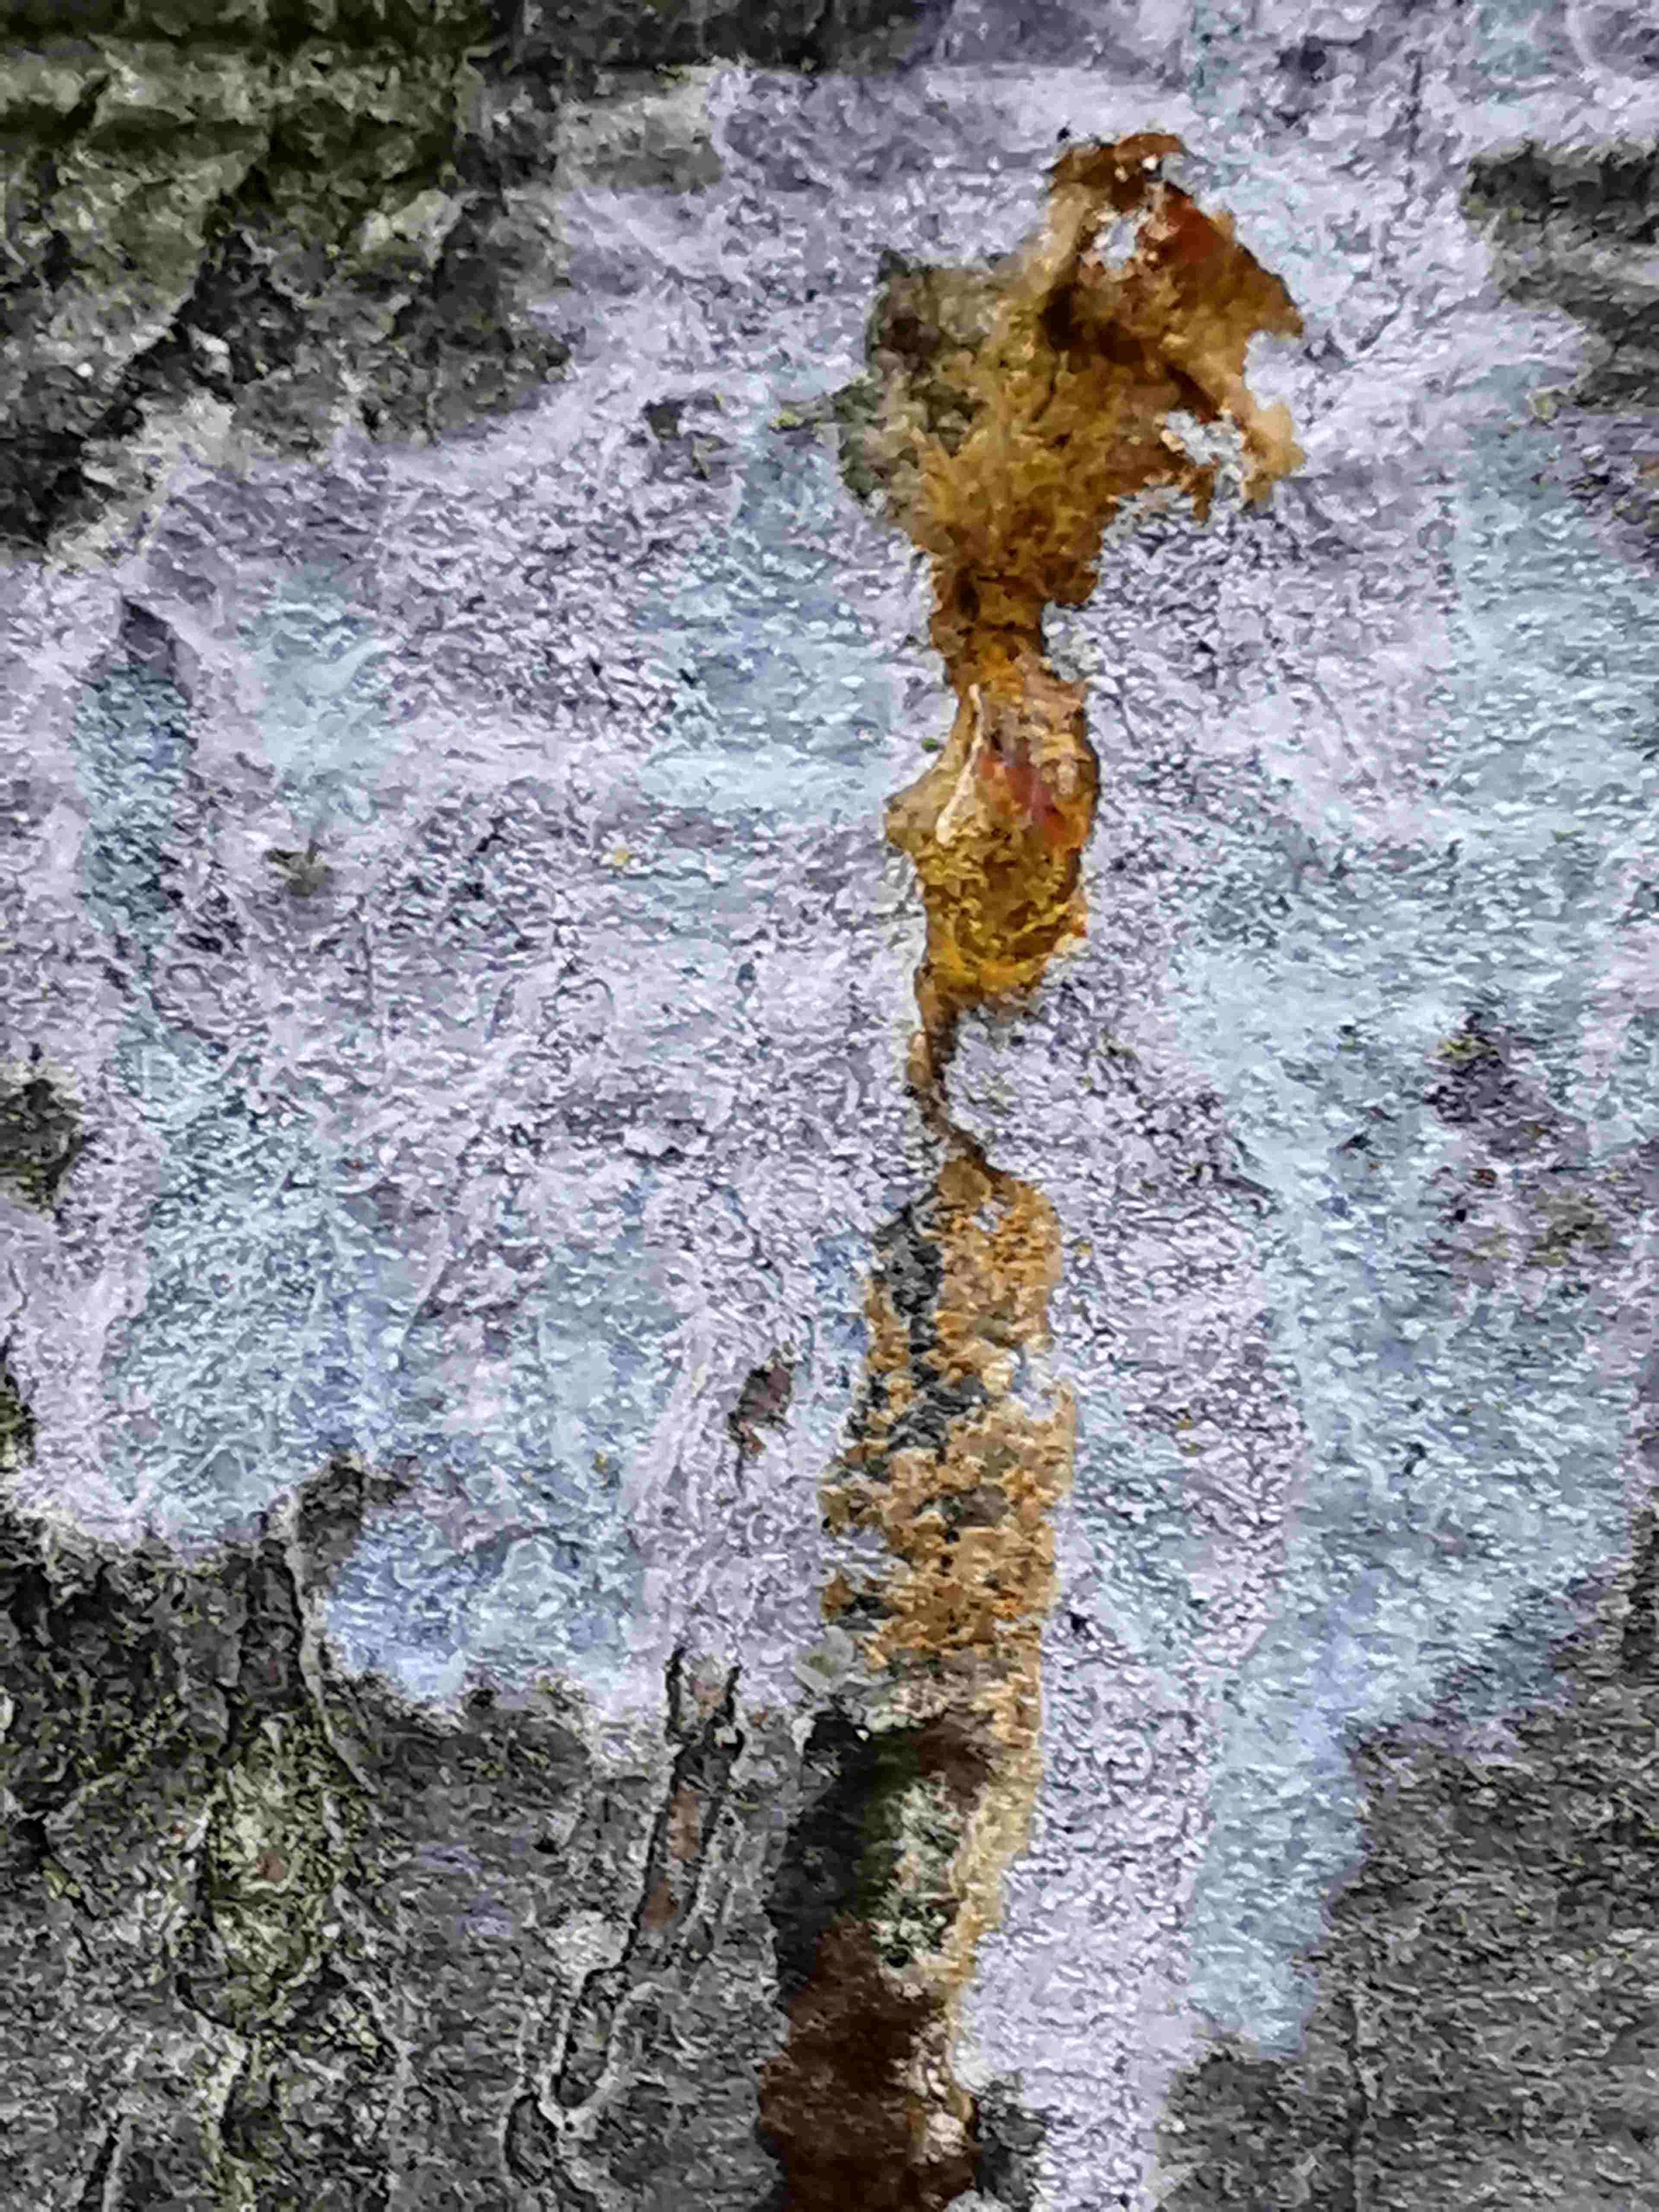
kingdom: Fungi
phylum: Ascomycota
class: Lecanoromycetes
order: Ostropales
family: Phlyctidaceae
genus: Phlyctis
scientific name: Phlyctis argena
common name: almindelig sølvlav
